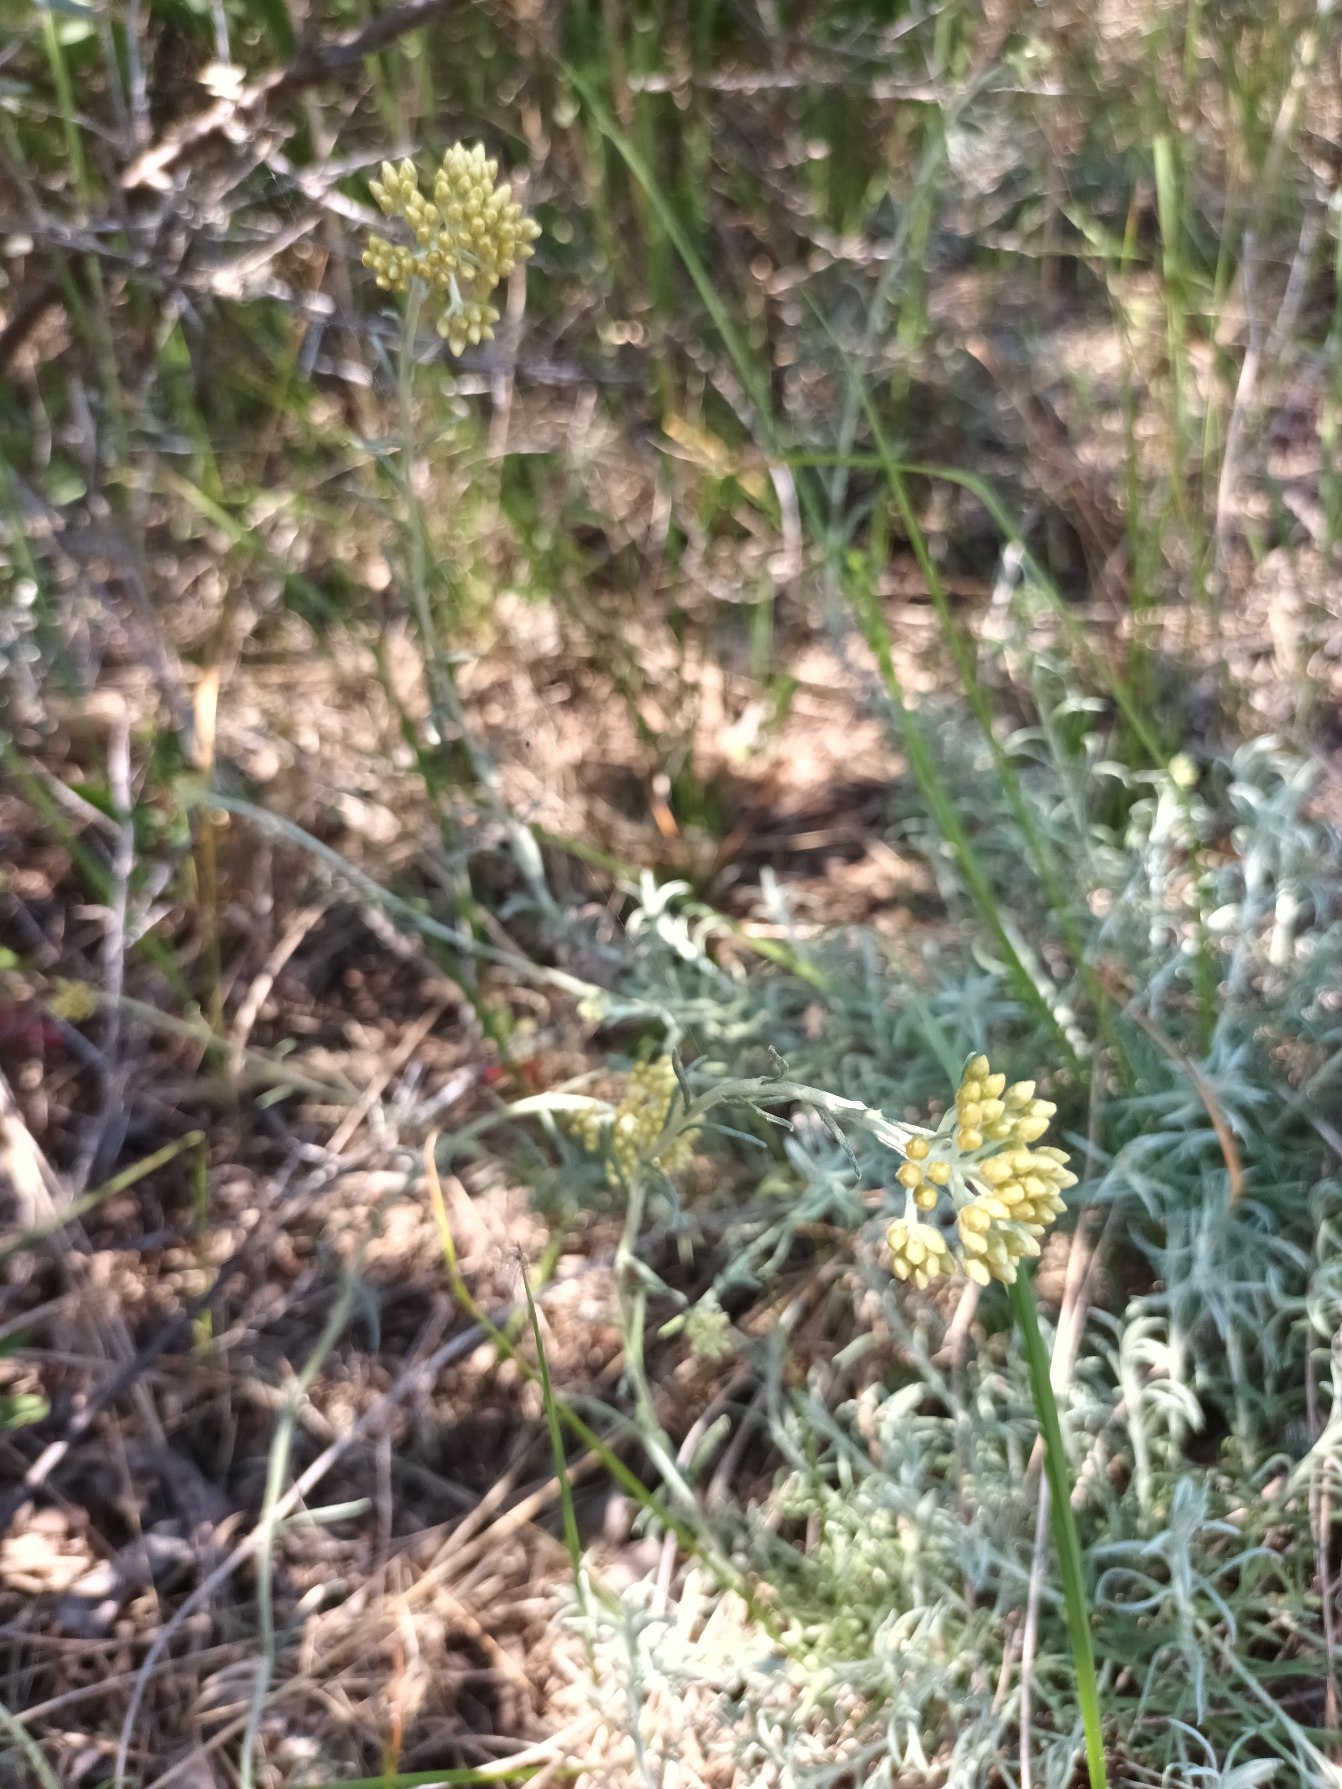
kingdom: Plantae
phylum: Tracheophyta
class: Magnoliopsida
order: Asterales
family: Asteraceae
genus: Helichrysum
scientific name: Helichrysum italicum
